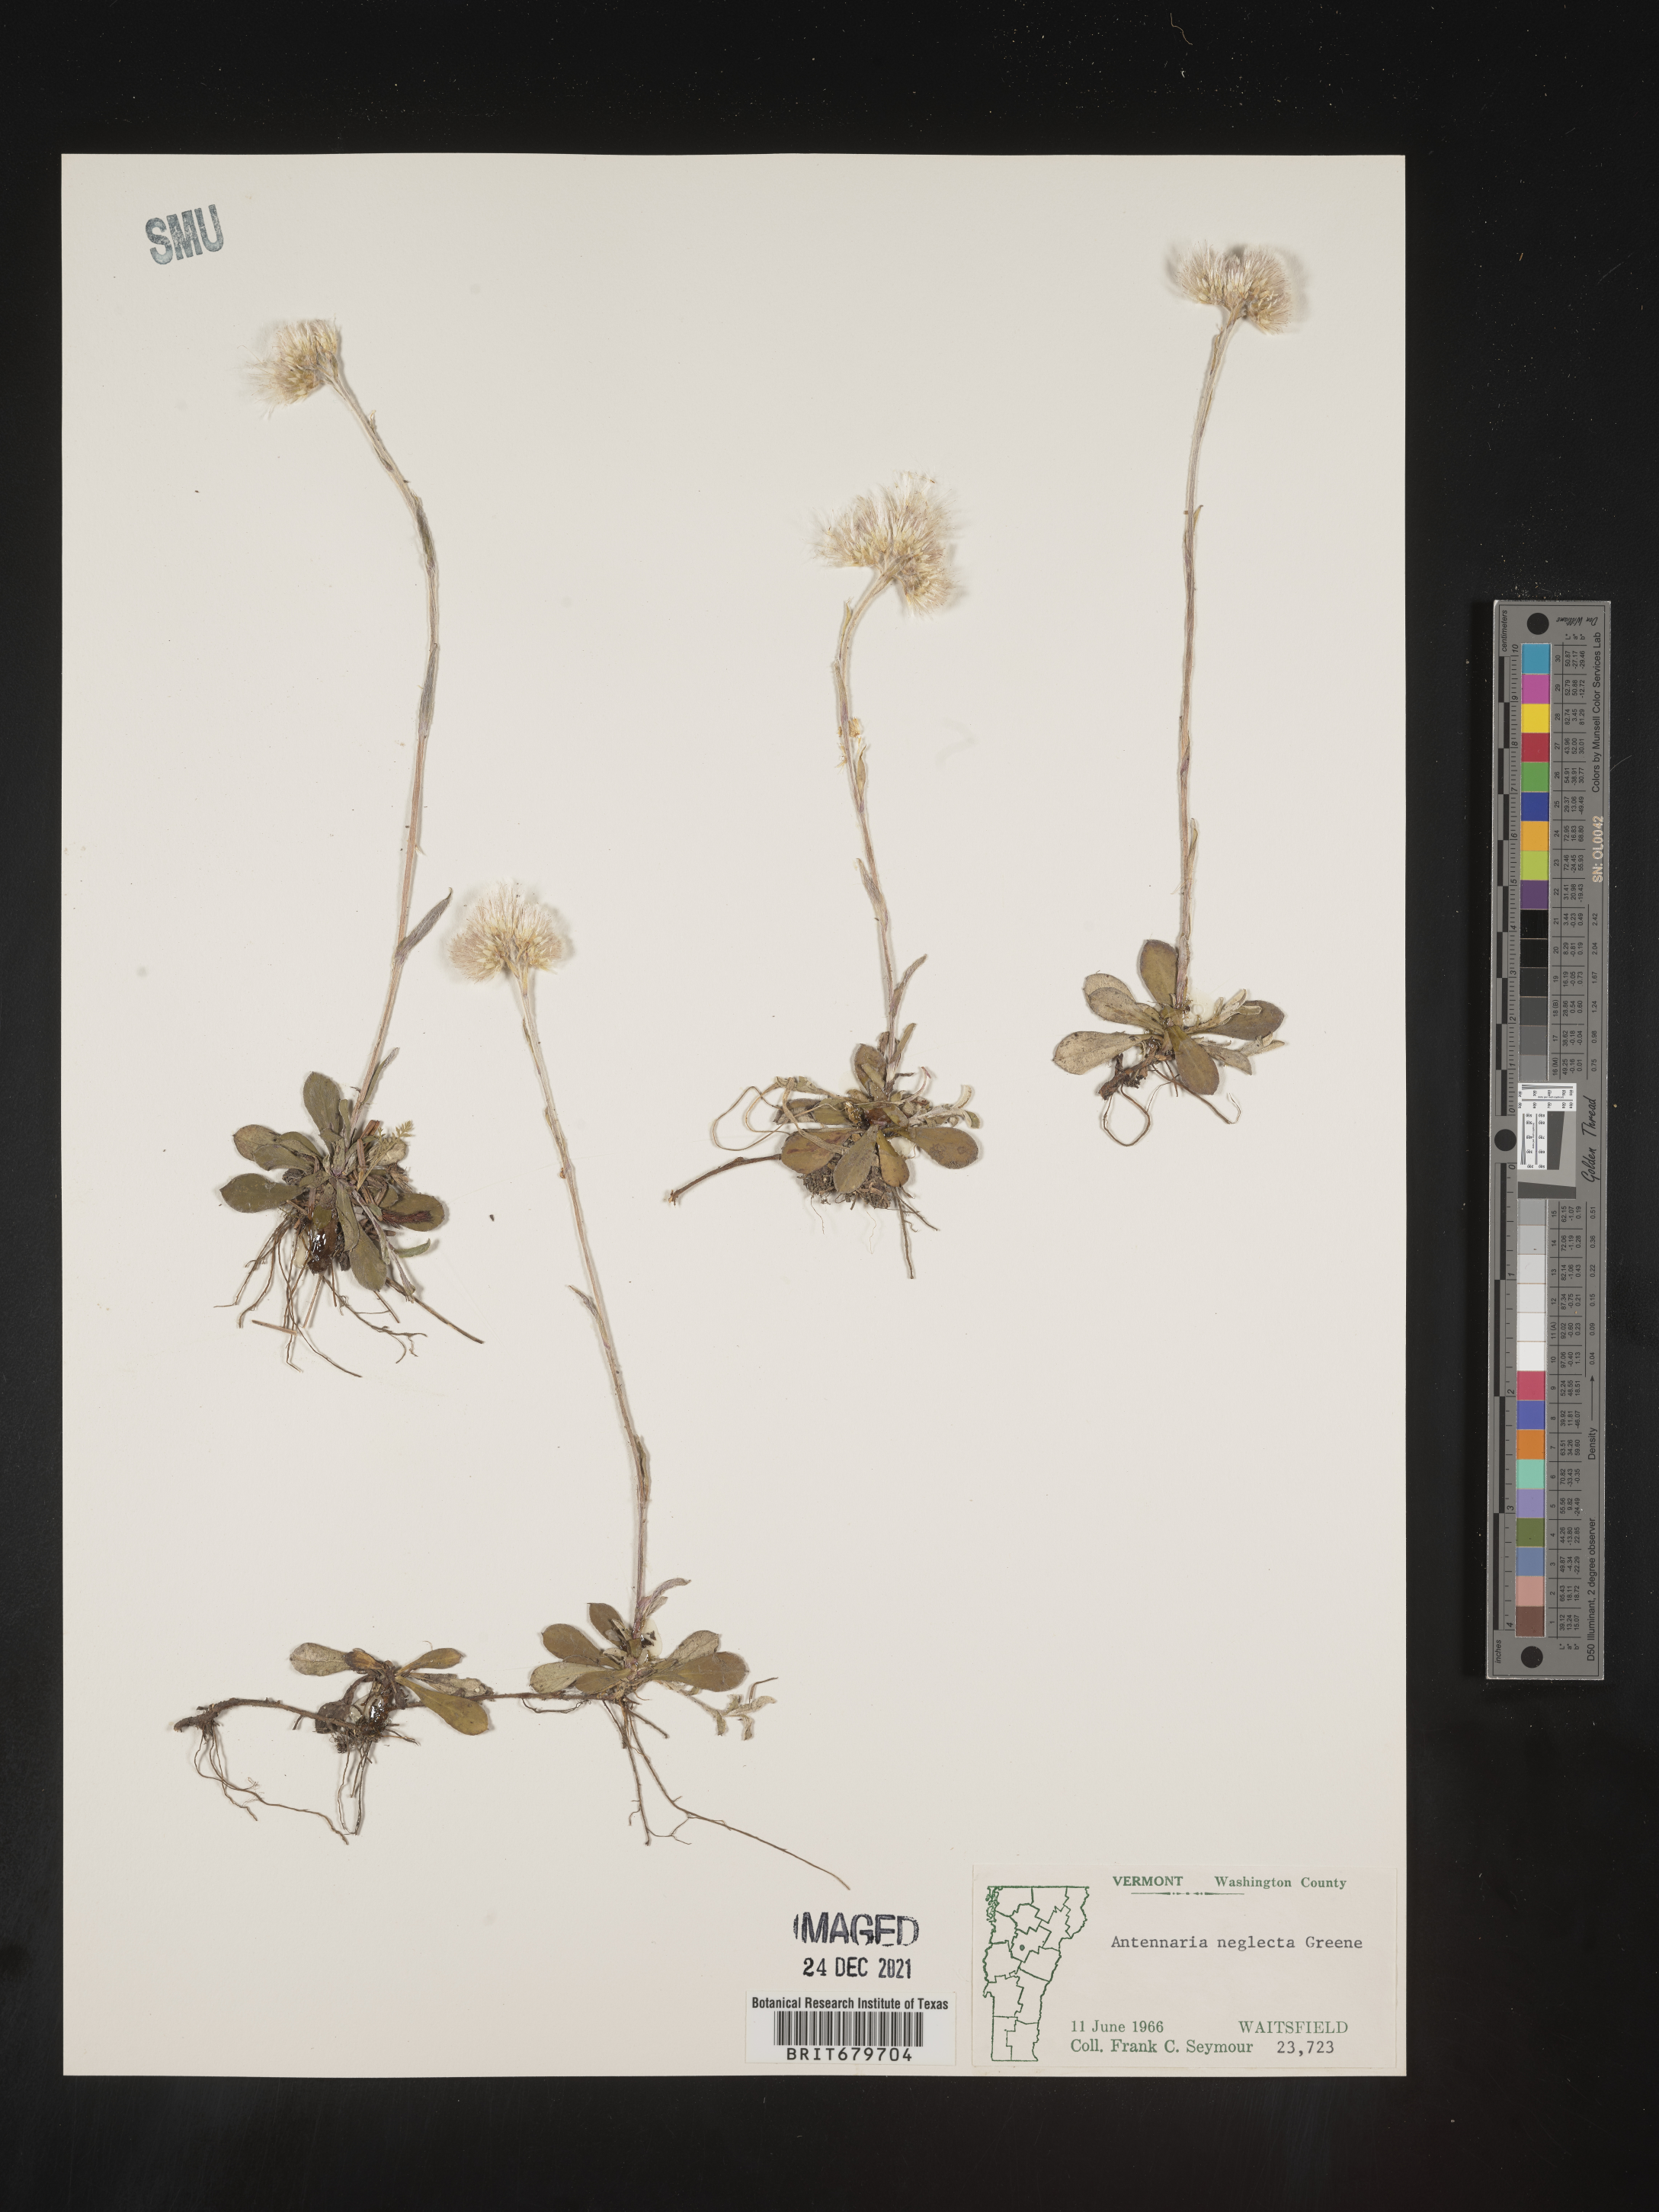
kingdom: Plantae
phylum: Tracheophyta
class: Magnoliopsida
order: Asterales
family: Asteraceae
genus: Antennaria
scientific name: Antennaria neglecta
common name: Field pussytoes
